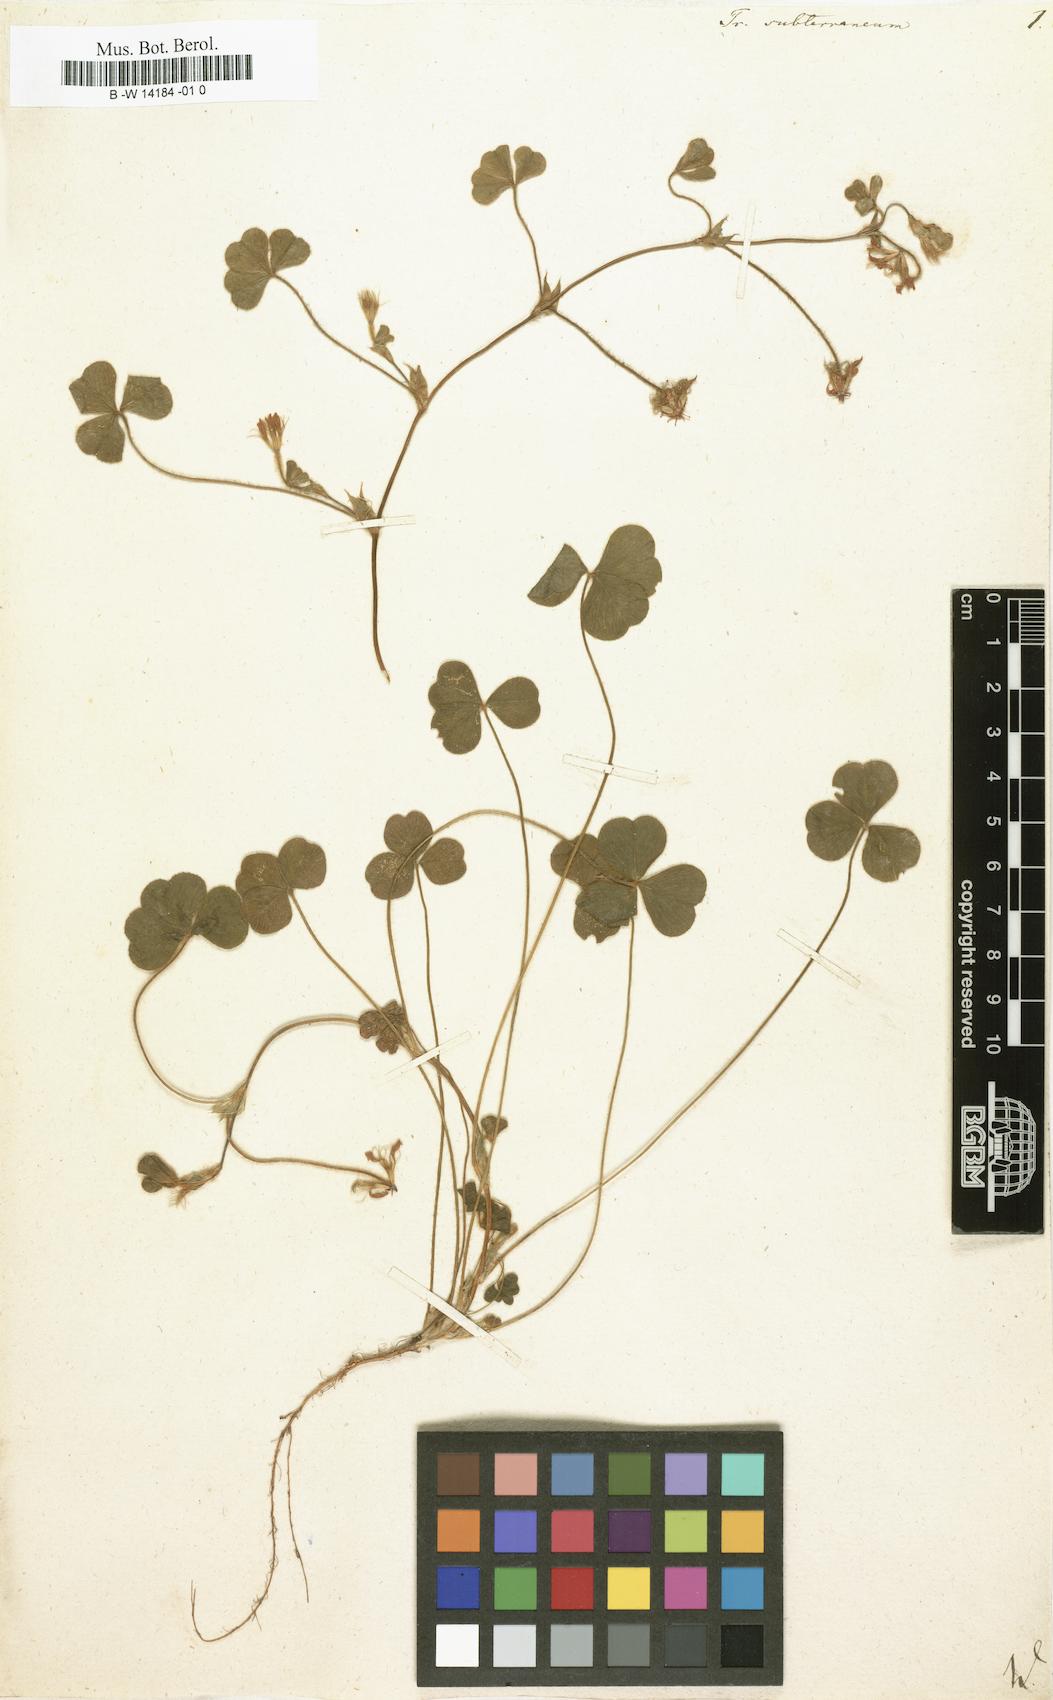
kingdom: Plantae
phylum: Tracheophyta
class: Magnoliopsida
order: Fabales
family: Fabaceae
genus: Trifolium
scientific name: Trifolium subterraneum
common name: Subterranean clover
